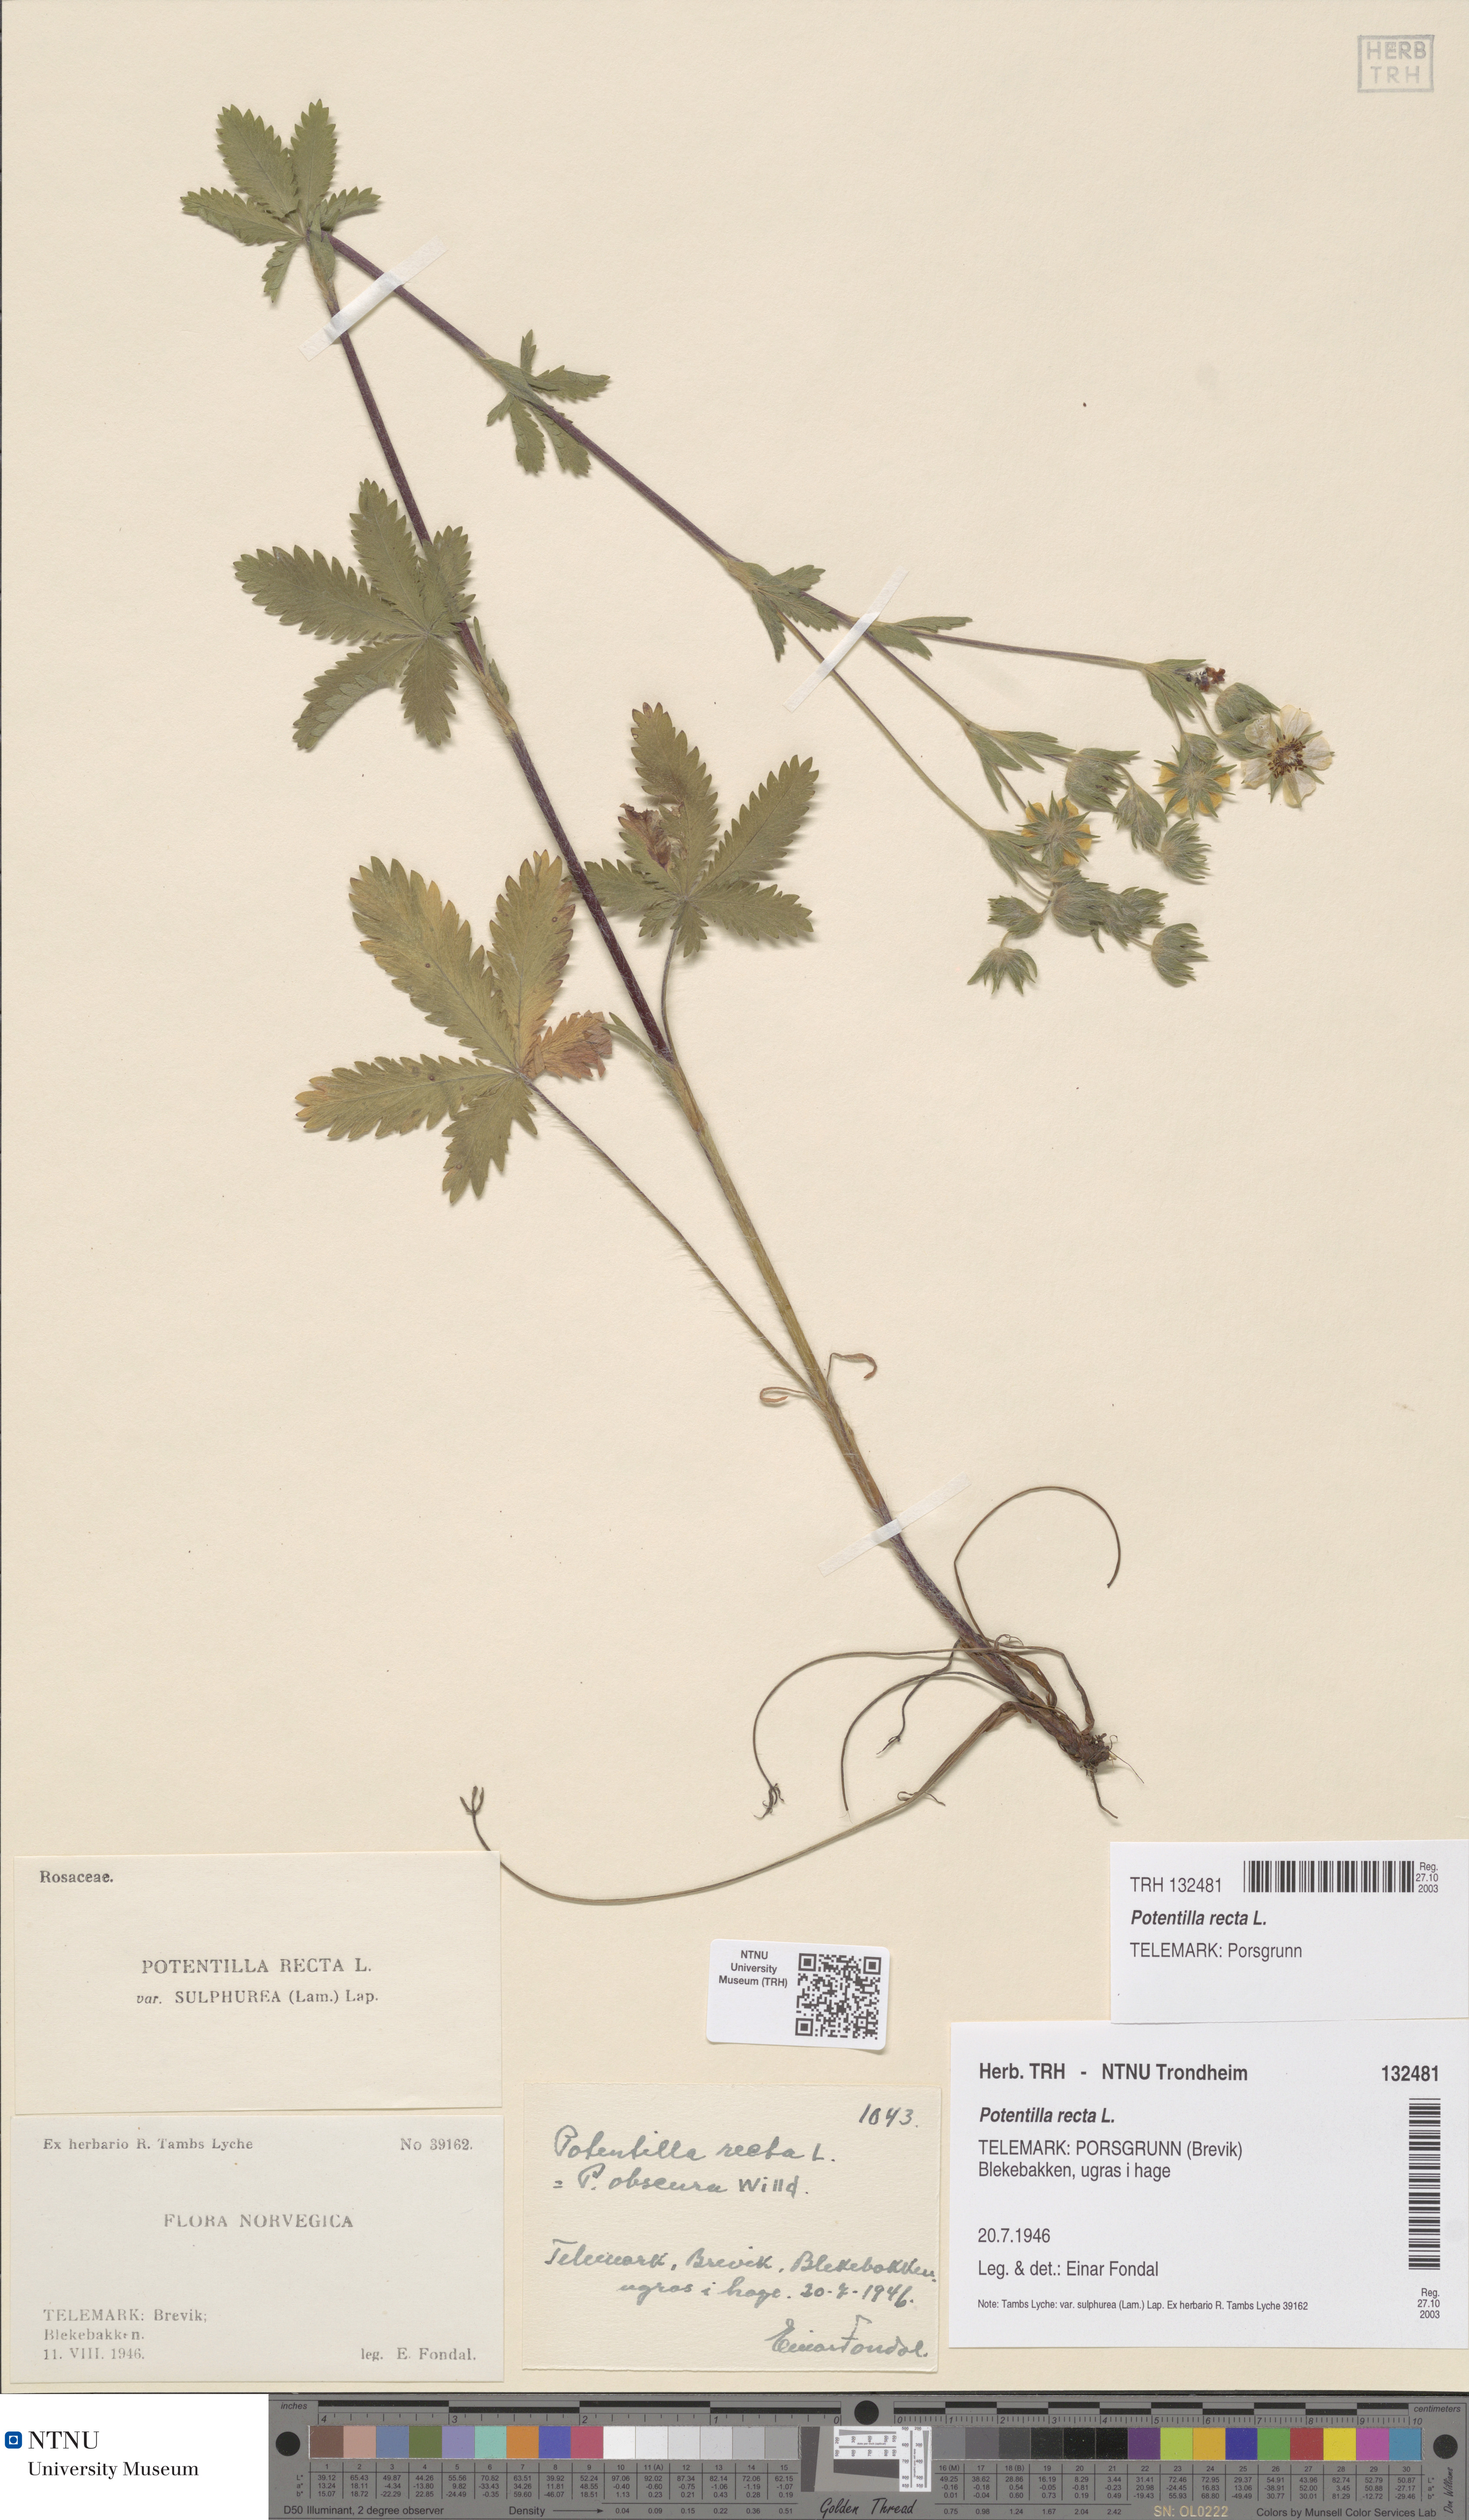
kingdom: Plantae
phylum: Tracheophyta
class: Magnoliopsida
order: Rosales
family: Rosaceae
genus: Potentilla
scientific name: Potentilla recta
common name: Sulphur cinquefoil
